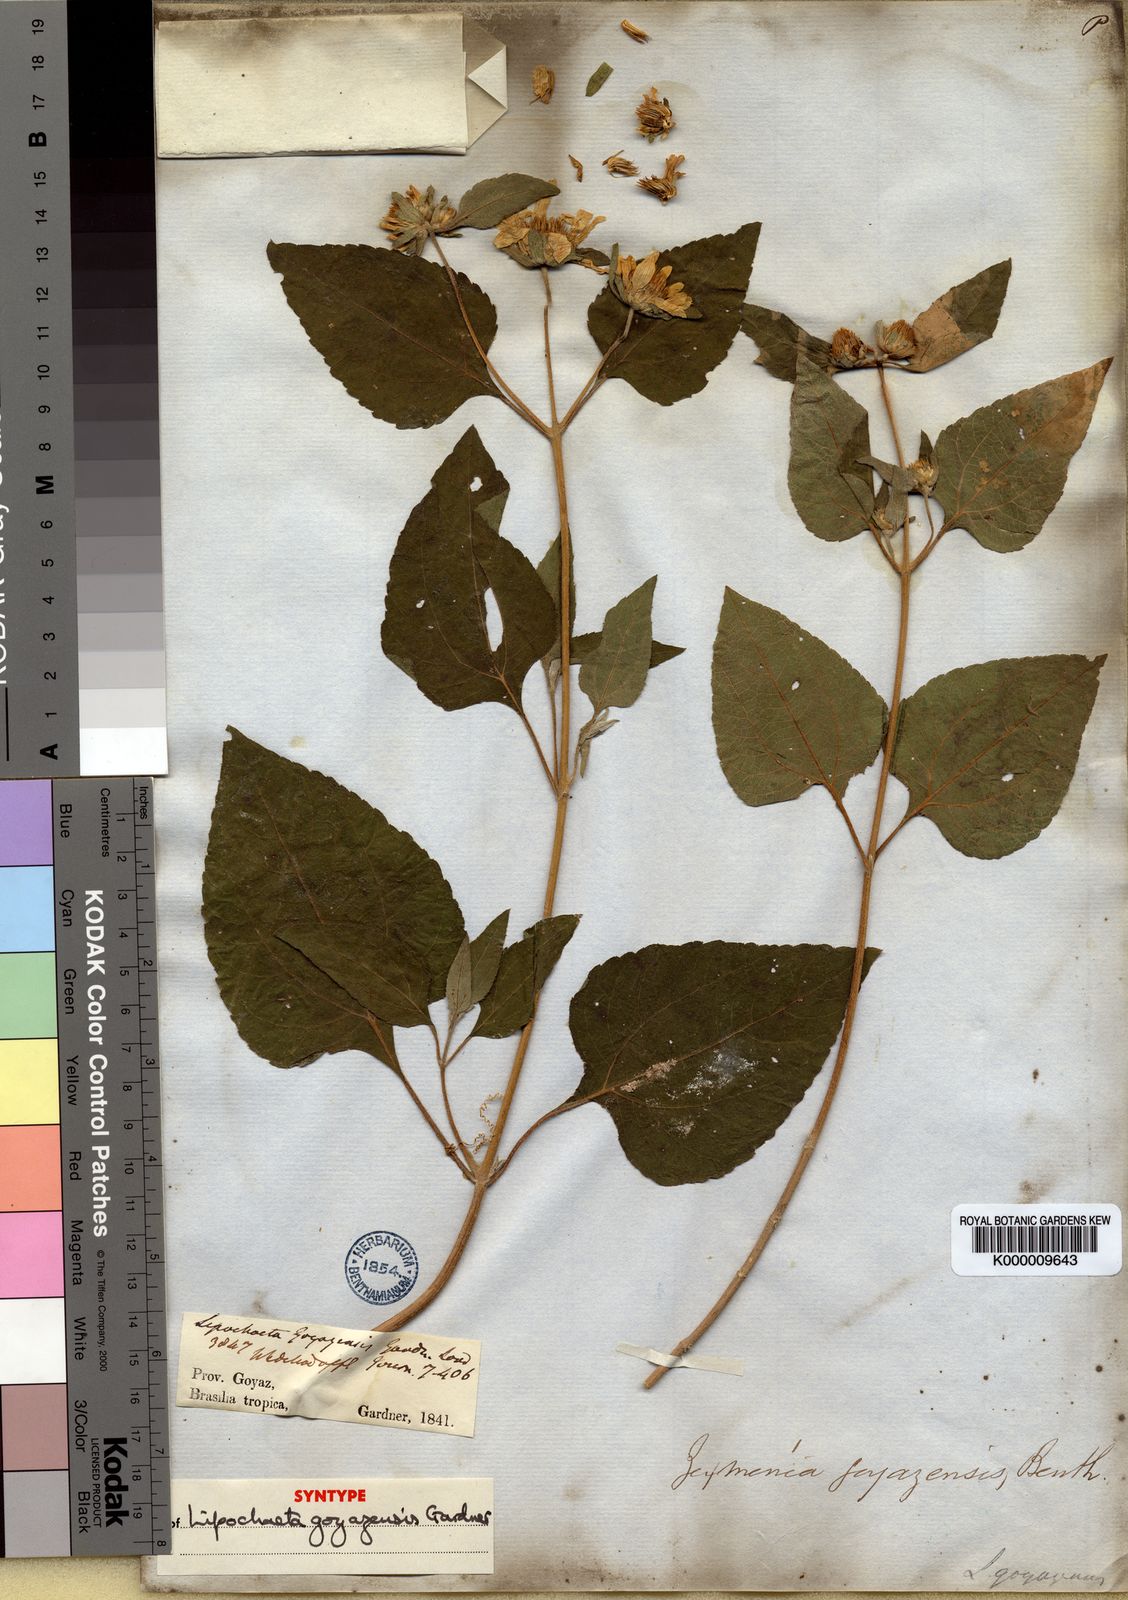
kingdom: Plantae
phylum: Tracheophyta
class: Magnoliopsida
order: Asterales
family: Asteraceae
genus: Dimerostemma
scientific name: Dimerostemma goyazense
